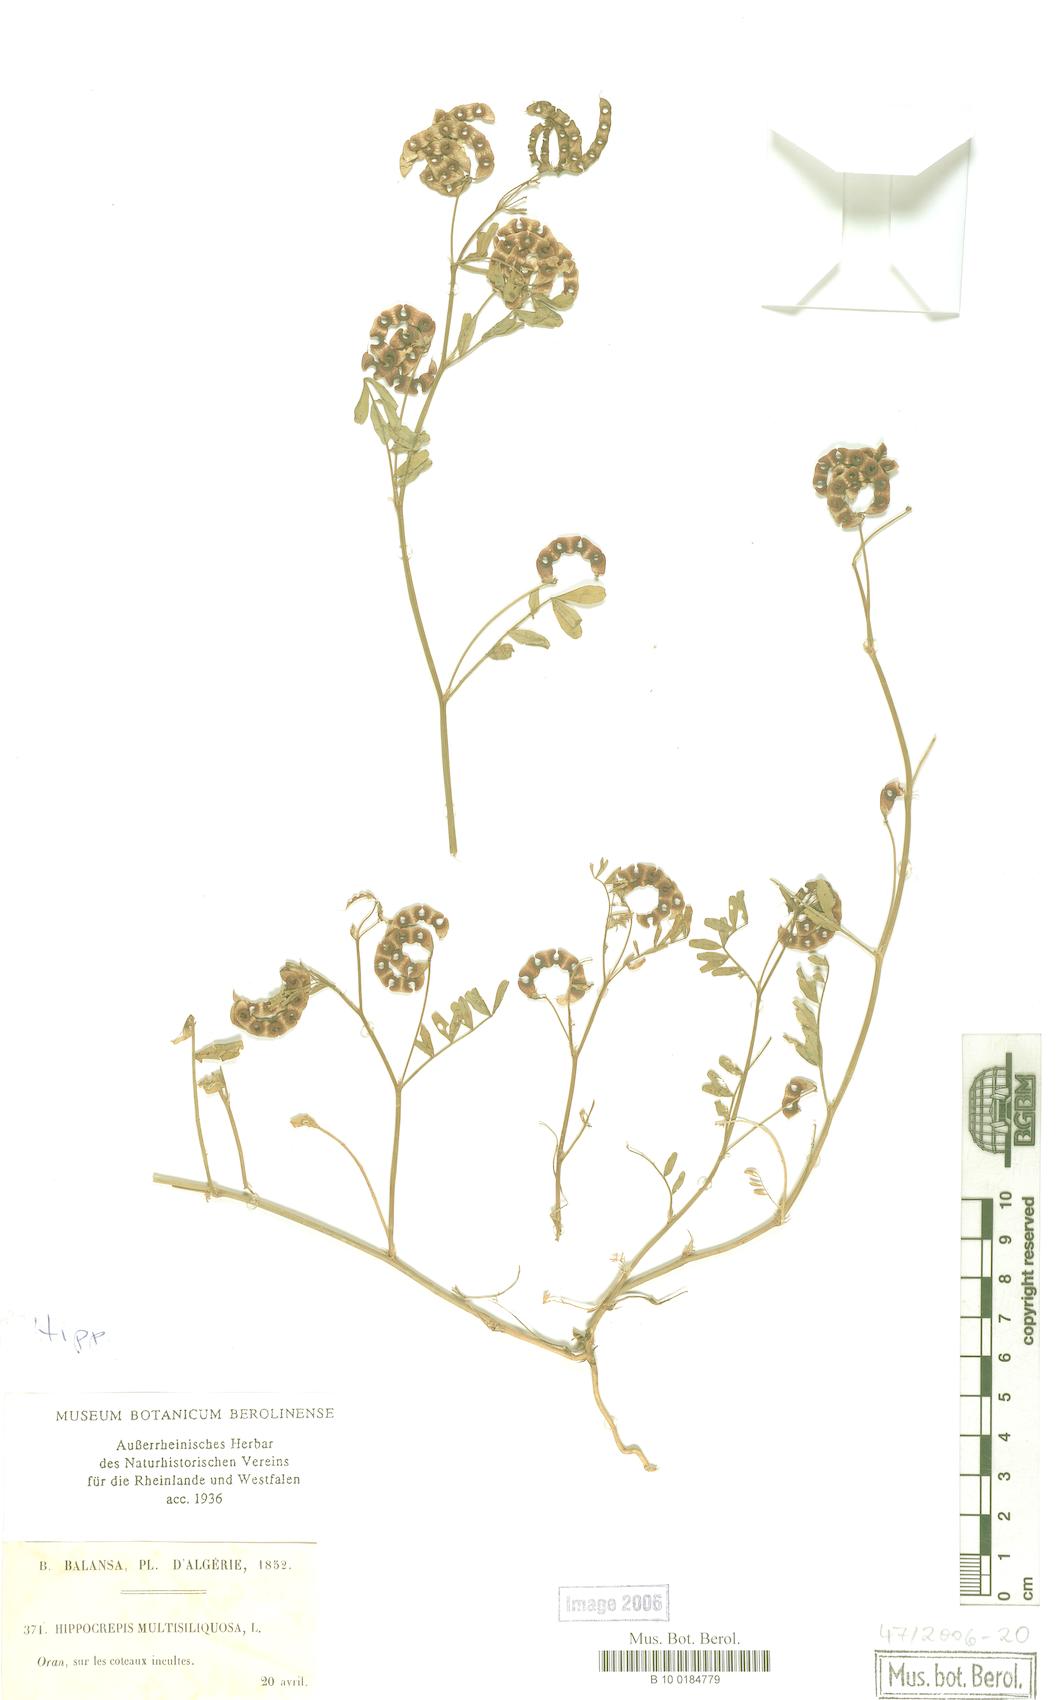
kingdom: Plantae
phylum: Tracheophyta
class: Magnoliopsida
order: Fabales
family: Fabaceae
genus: Hippocrepis
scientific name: Hippocrepis multisiliquosa
